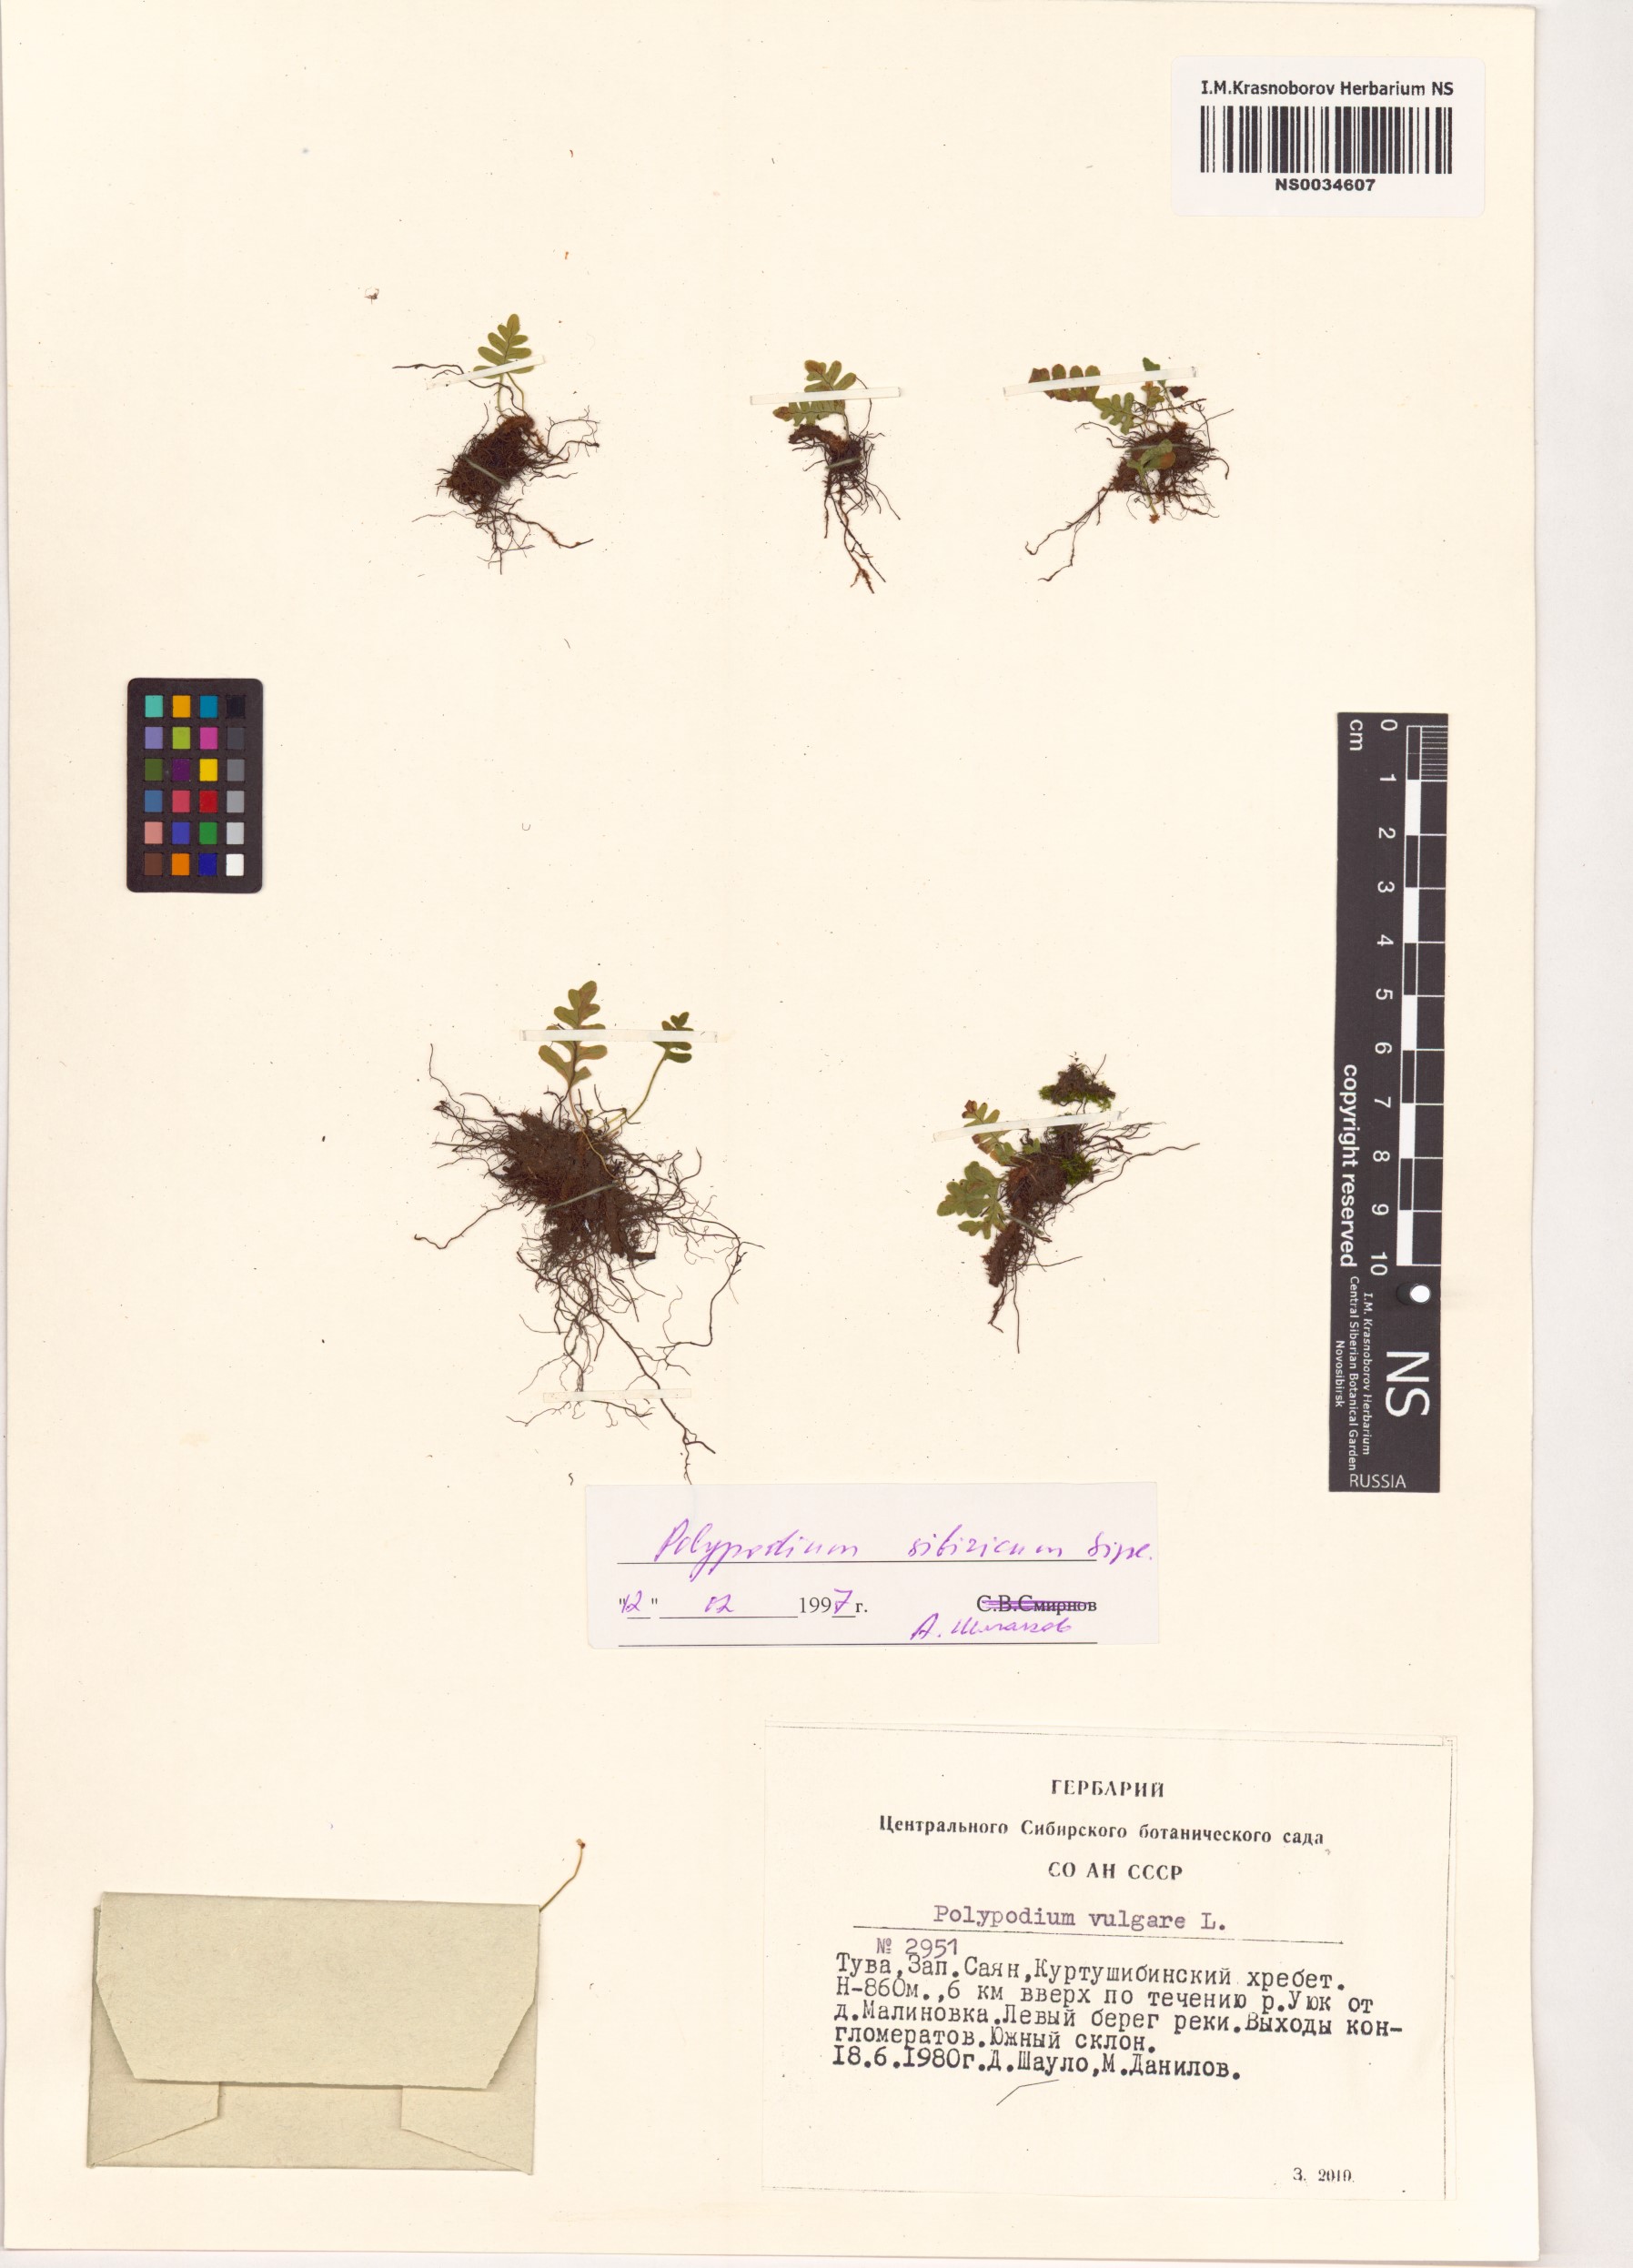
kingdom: Plantae
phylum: Tracheophyta
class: Polypodiopsida
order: Polypodiales
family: Polypodiaceae
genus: Polypodium
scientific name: Polypodium sibiricum
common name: Siberian polypody
